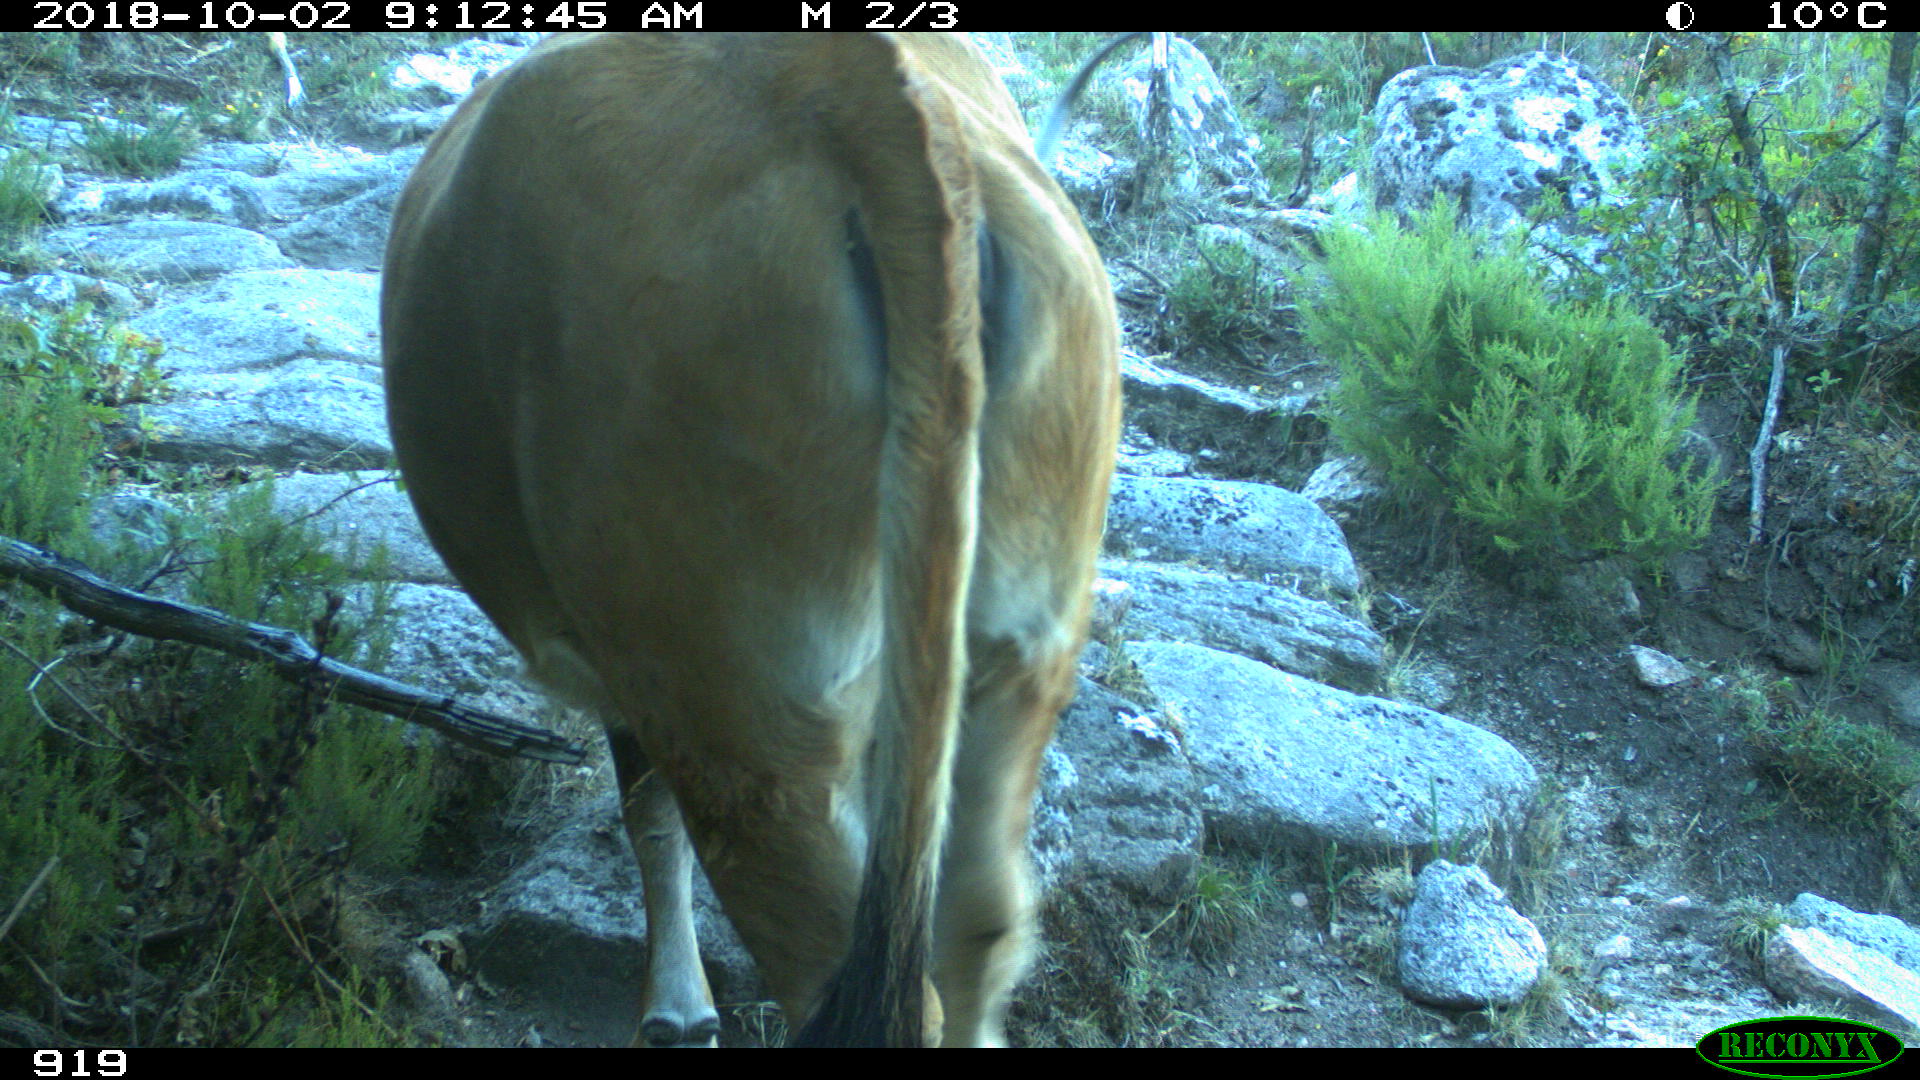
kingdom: Animalia
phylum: Chordata
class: Mammalia
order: Artiodactyla
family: Bovidae
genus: Bos
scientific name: Bos taurus
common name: Domesticated cattle
